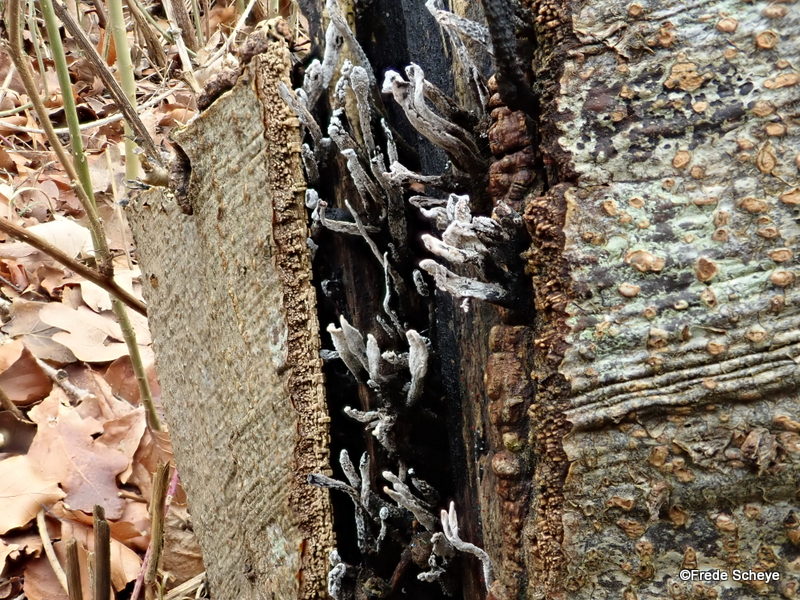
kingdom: Fungi
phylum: Ascomycota
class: Sordariomycetes
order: Xylariales
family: Xylariaceae
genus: Xylaria
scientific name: Xylaria hypoxylon
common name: grenet stødsvamp
